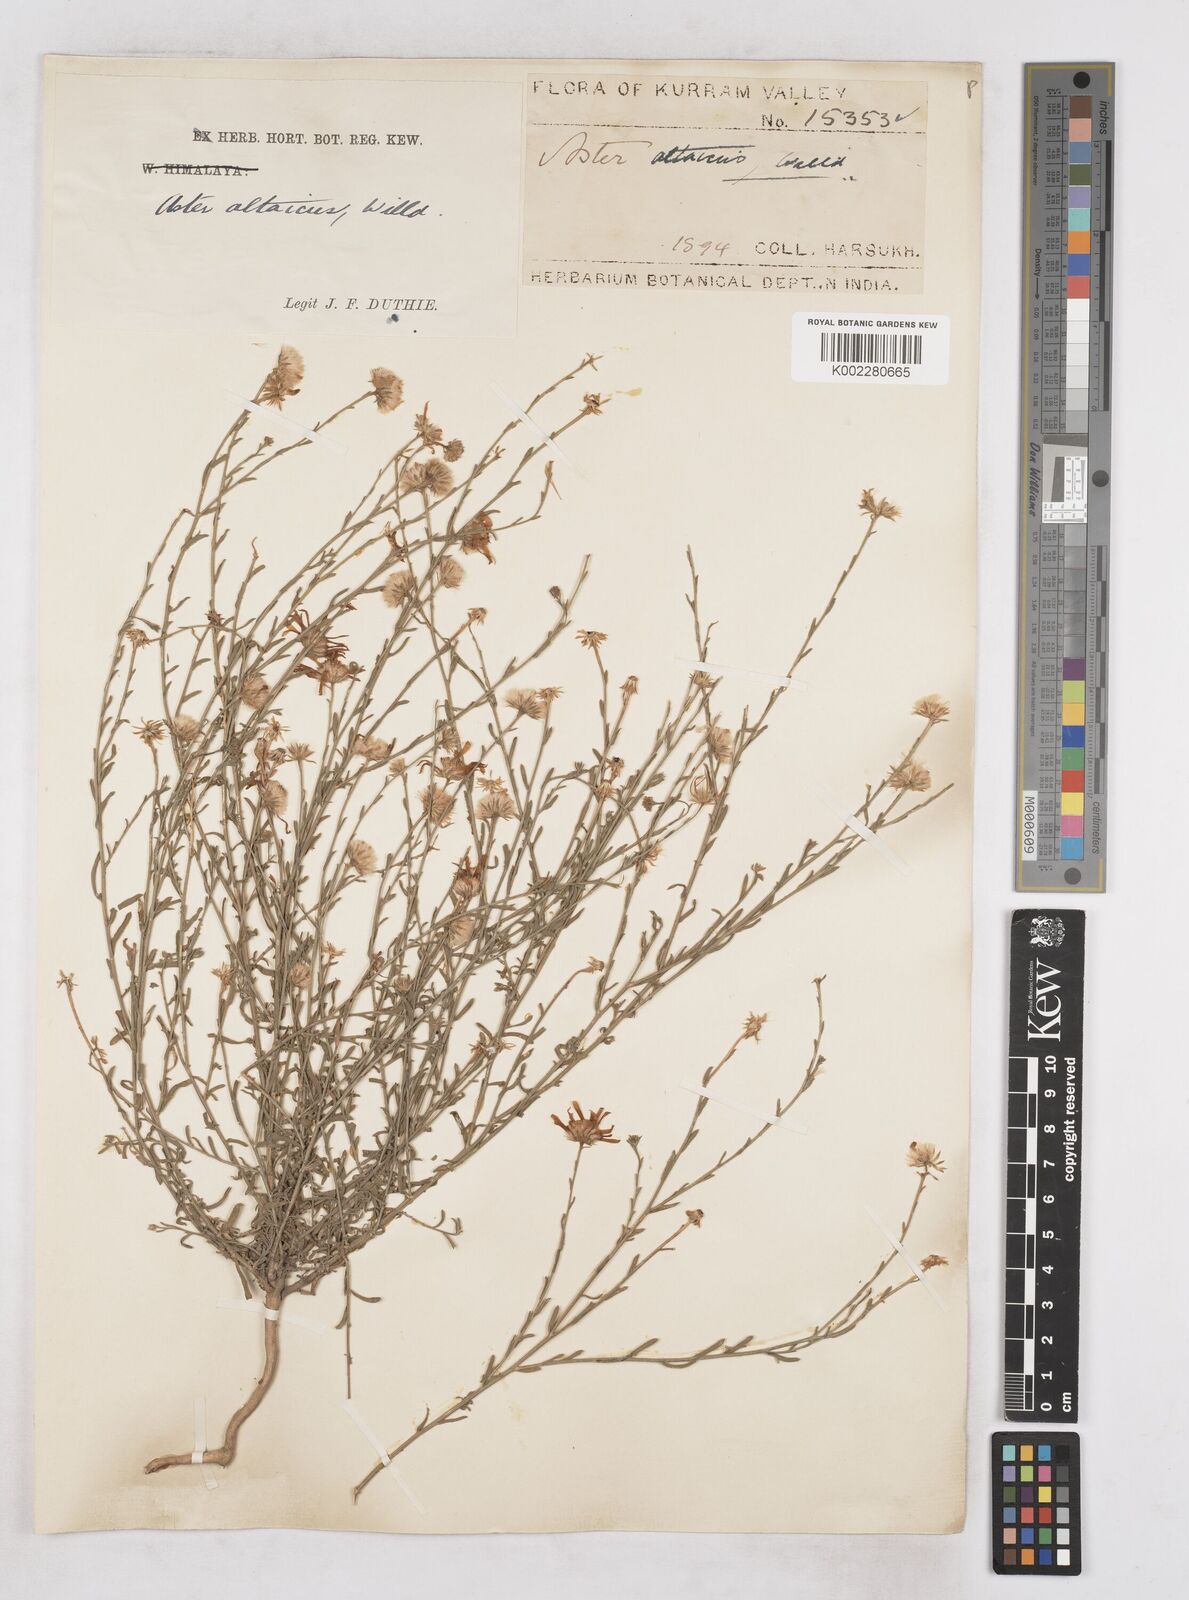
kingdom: Plantae
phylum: Tracheophyta
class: Magnoliopsida
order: Asterales
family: Asteraceae
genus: Heteropappus
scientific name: Heteropappus altaicus
